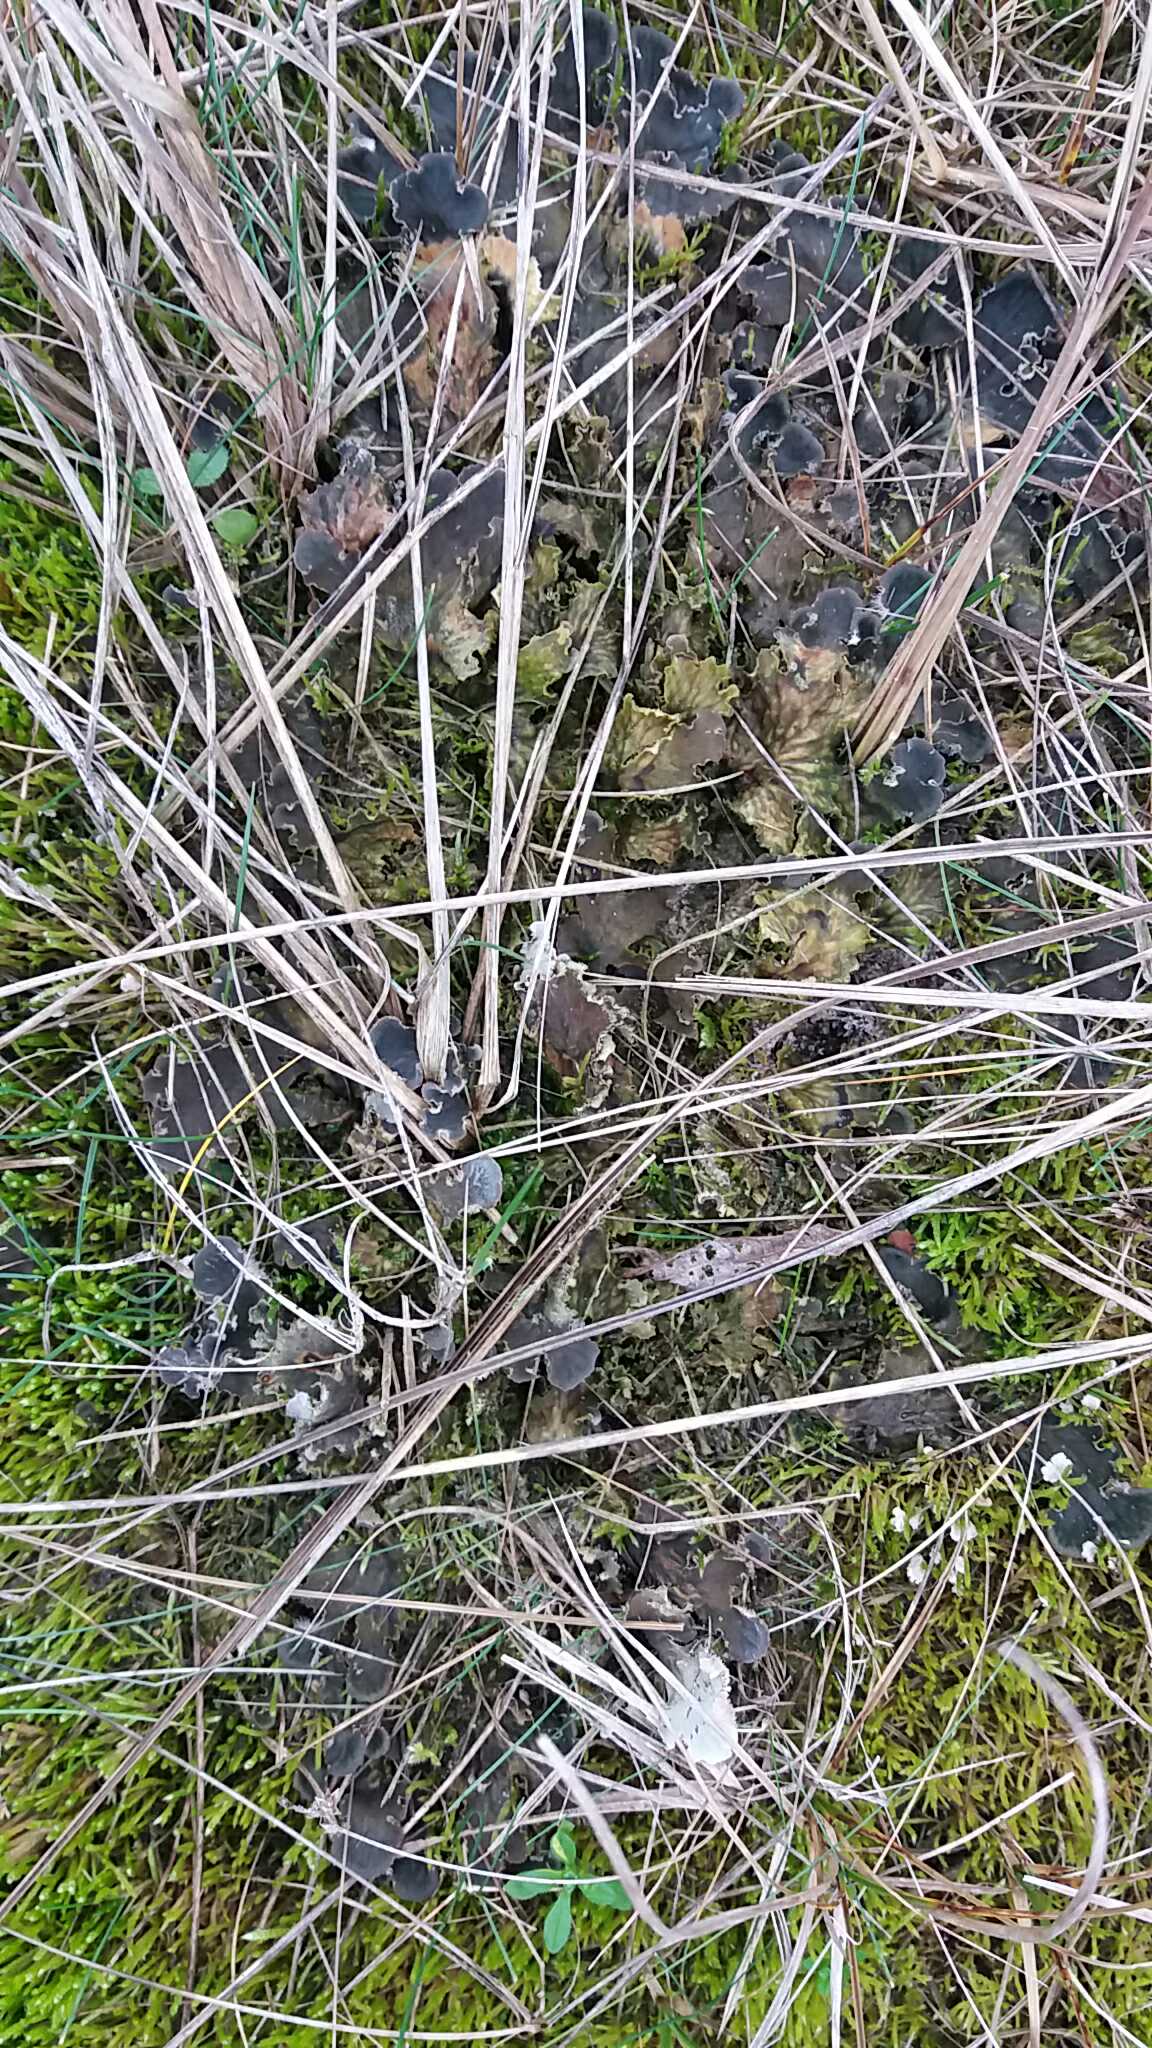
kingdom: Fungi
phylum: Ascomycota
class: Lecanoromycetes
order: Peltigerales
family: Peltigeraceae
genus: Peltigera
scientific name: Peltigera canina
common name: hunde-skjoldlav
